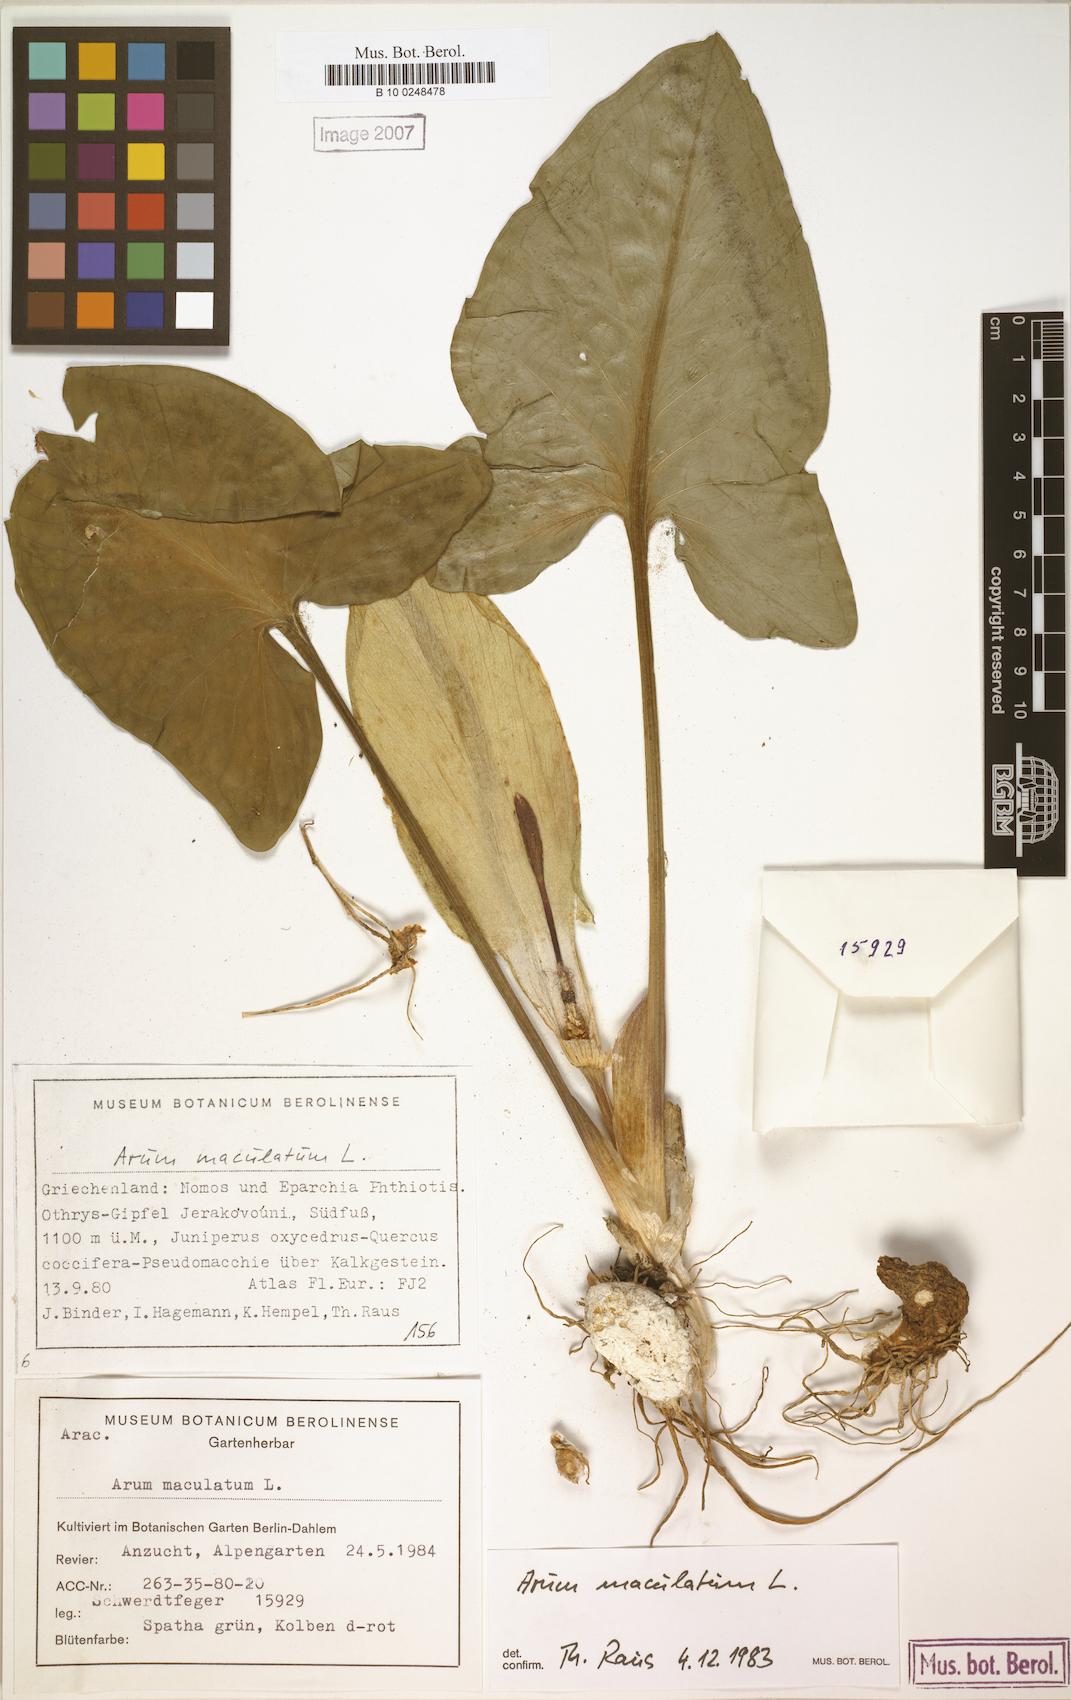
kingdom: Plantae
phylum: Tracheophyta
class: Liliopsida
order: Alismatales
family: Araceae
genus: Arum
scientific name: Arum maculatum
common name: Lords-and-ladies
